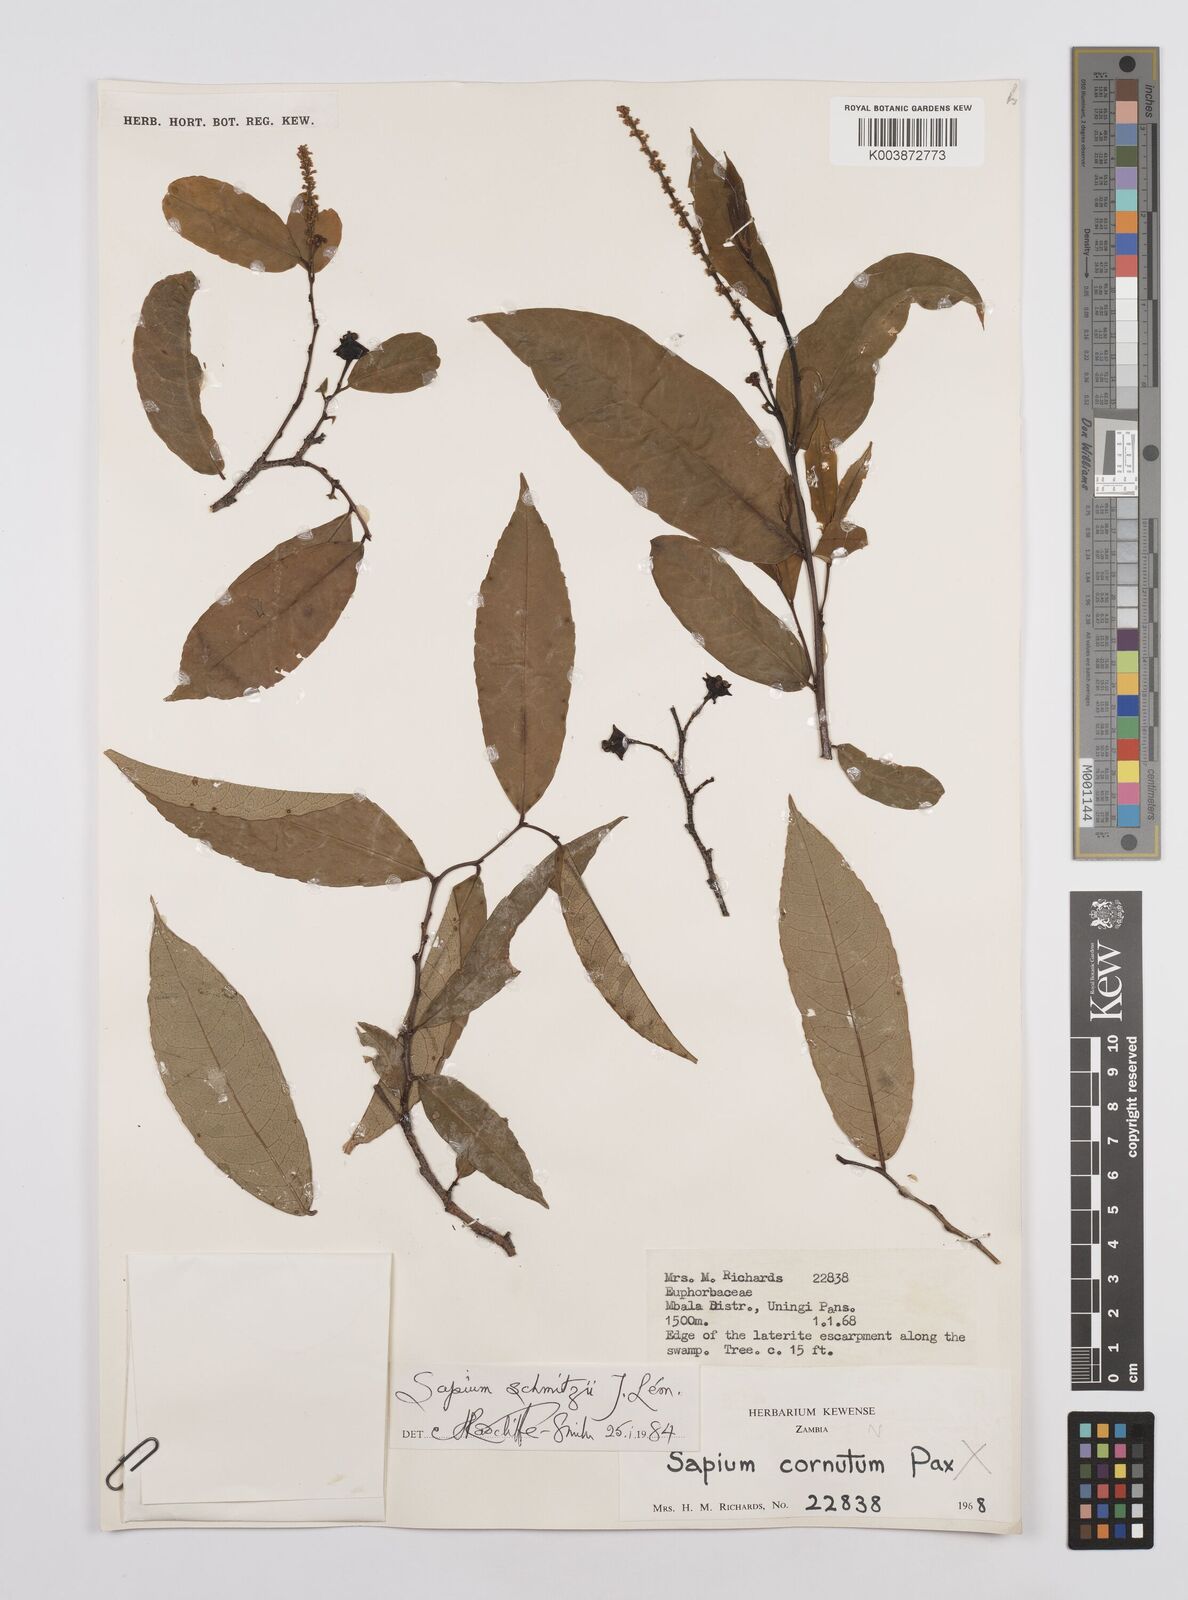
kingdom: Plantae
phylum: Tracheophyta
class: Magnoliopsida
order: Malpighiales
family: Euphorbiaceae
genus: Sclerocroton
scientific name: Sclerocroton schmitzii
